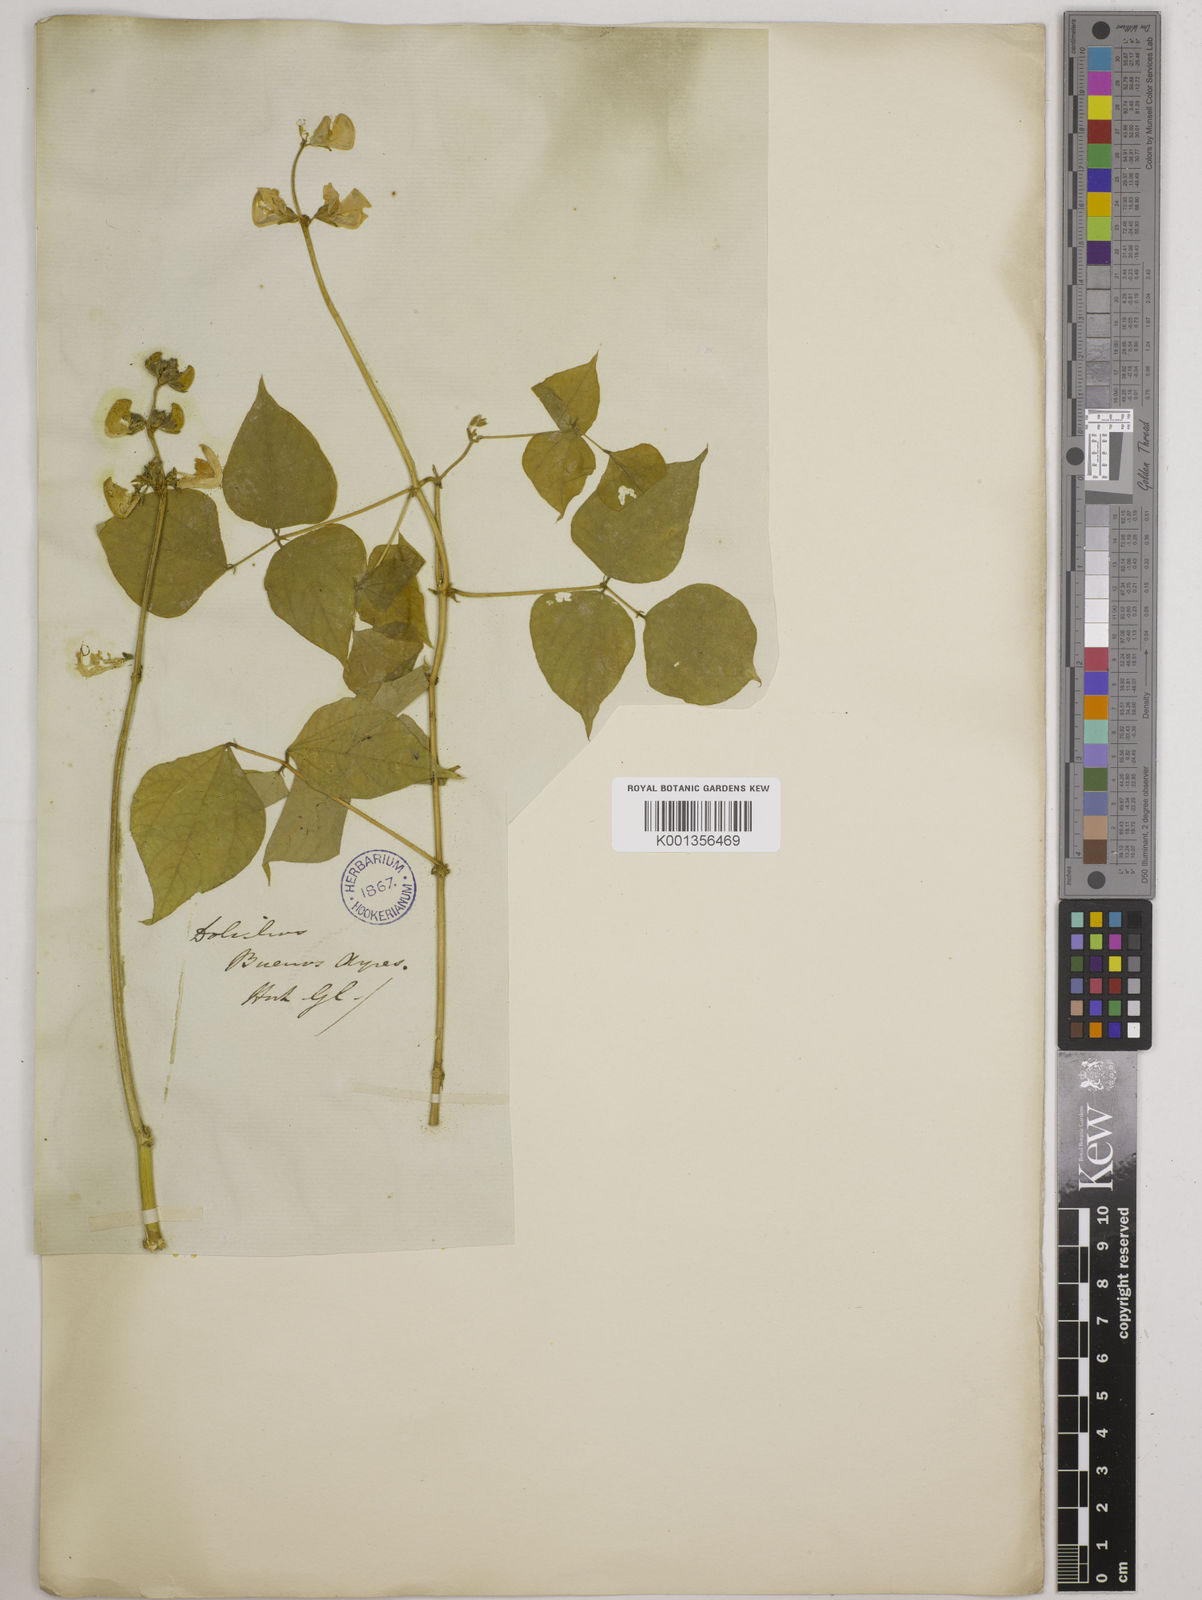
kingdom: Plantae
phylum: Tracheophyta
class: Magnoliopsida
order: Fabales
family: Fabaceae
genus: Lablab
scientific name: Lablab purpureus
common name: Lablab-bean
